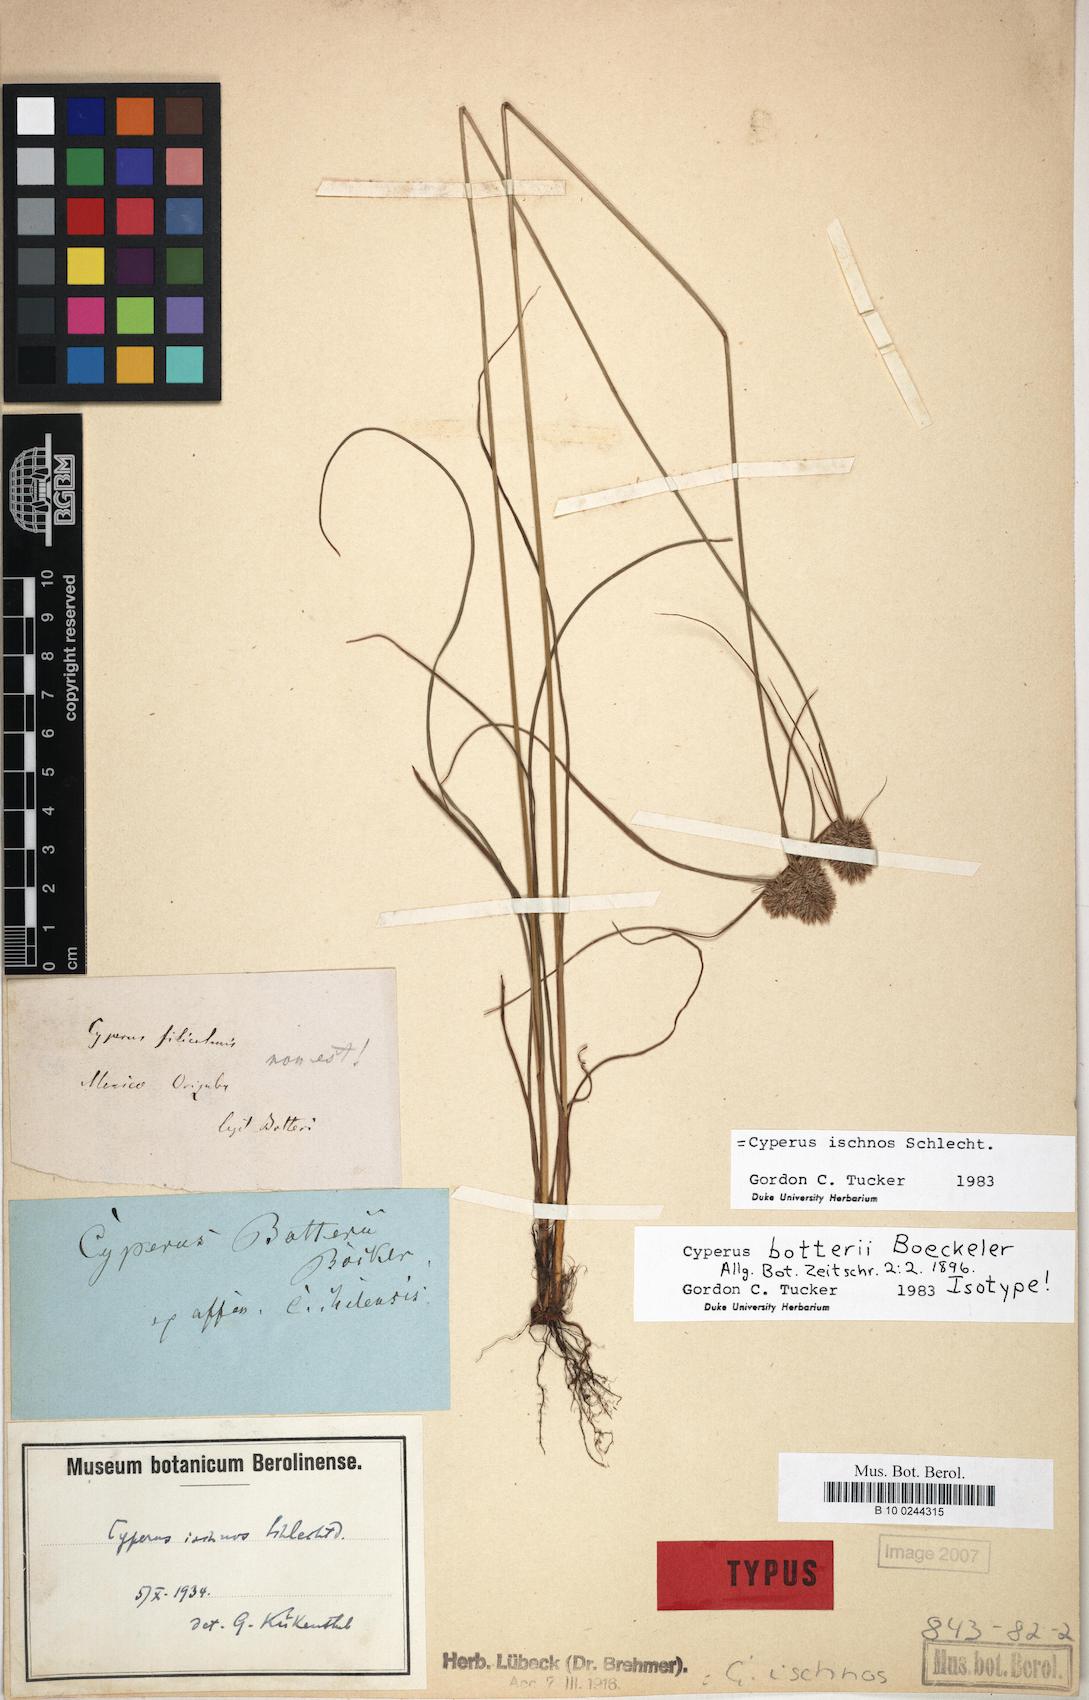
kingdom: Plantae
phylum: Tracheophyta
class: Liliopsida
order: Poales
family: Cyperaceae
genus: Cyperus
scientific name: Cyperus ischnos
